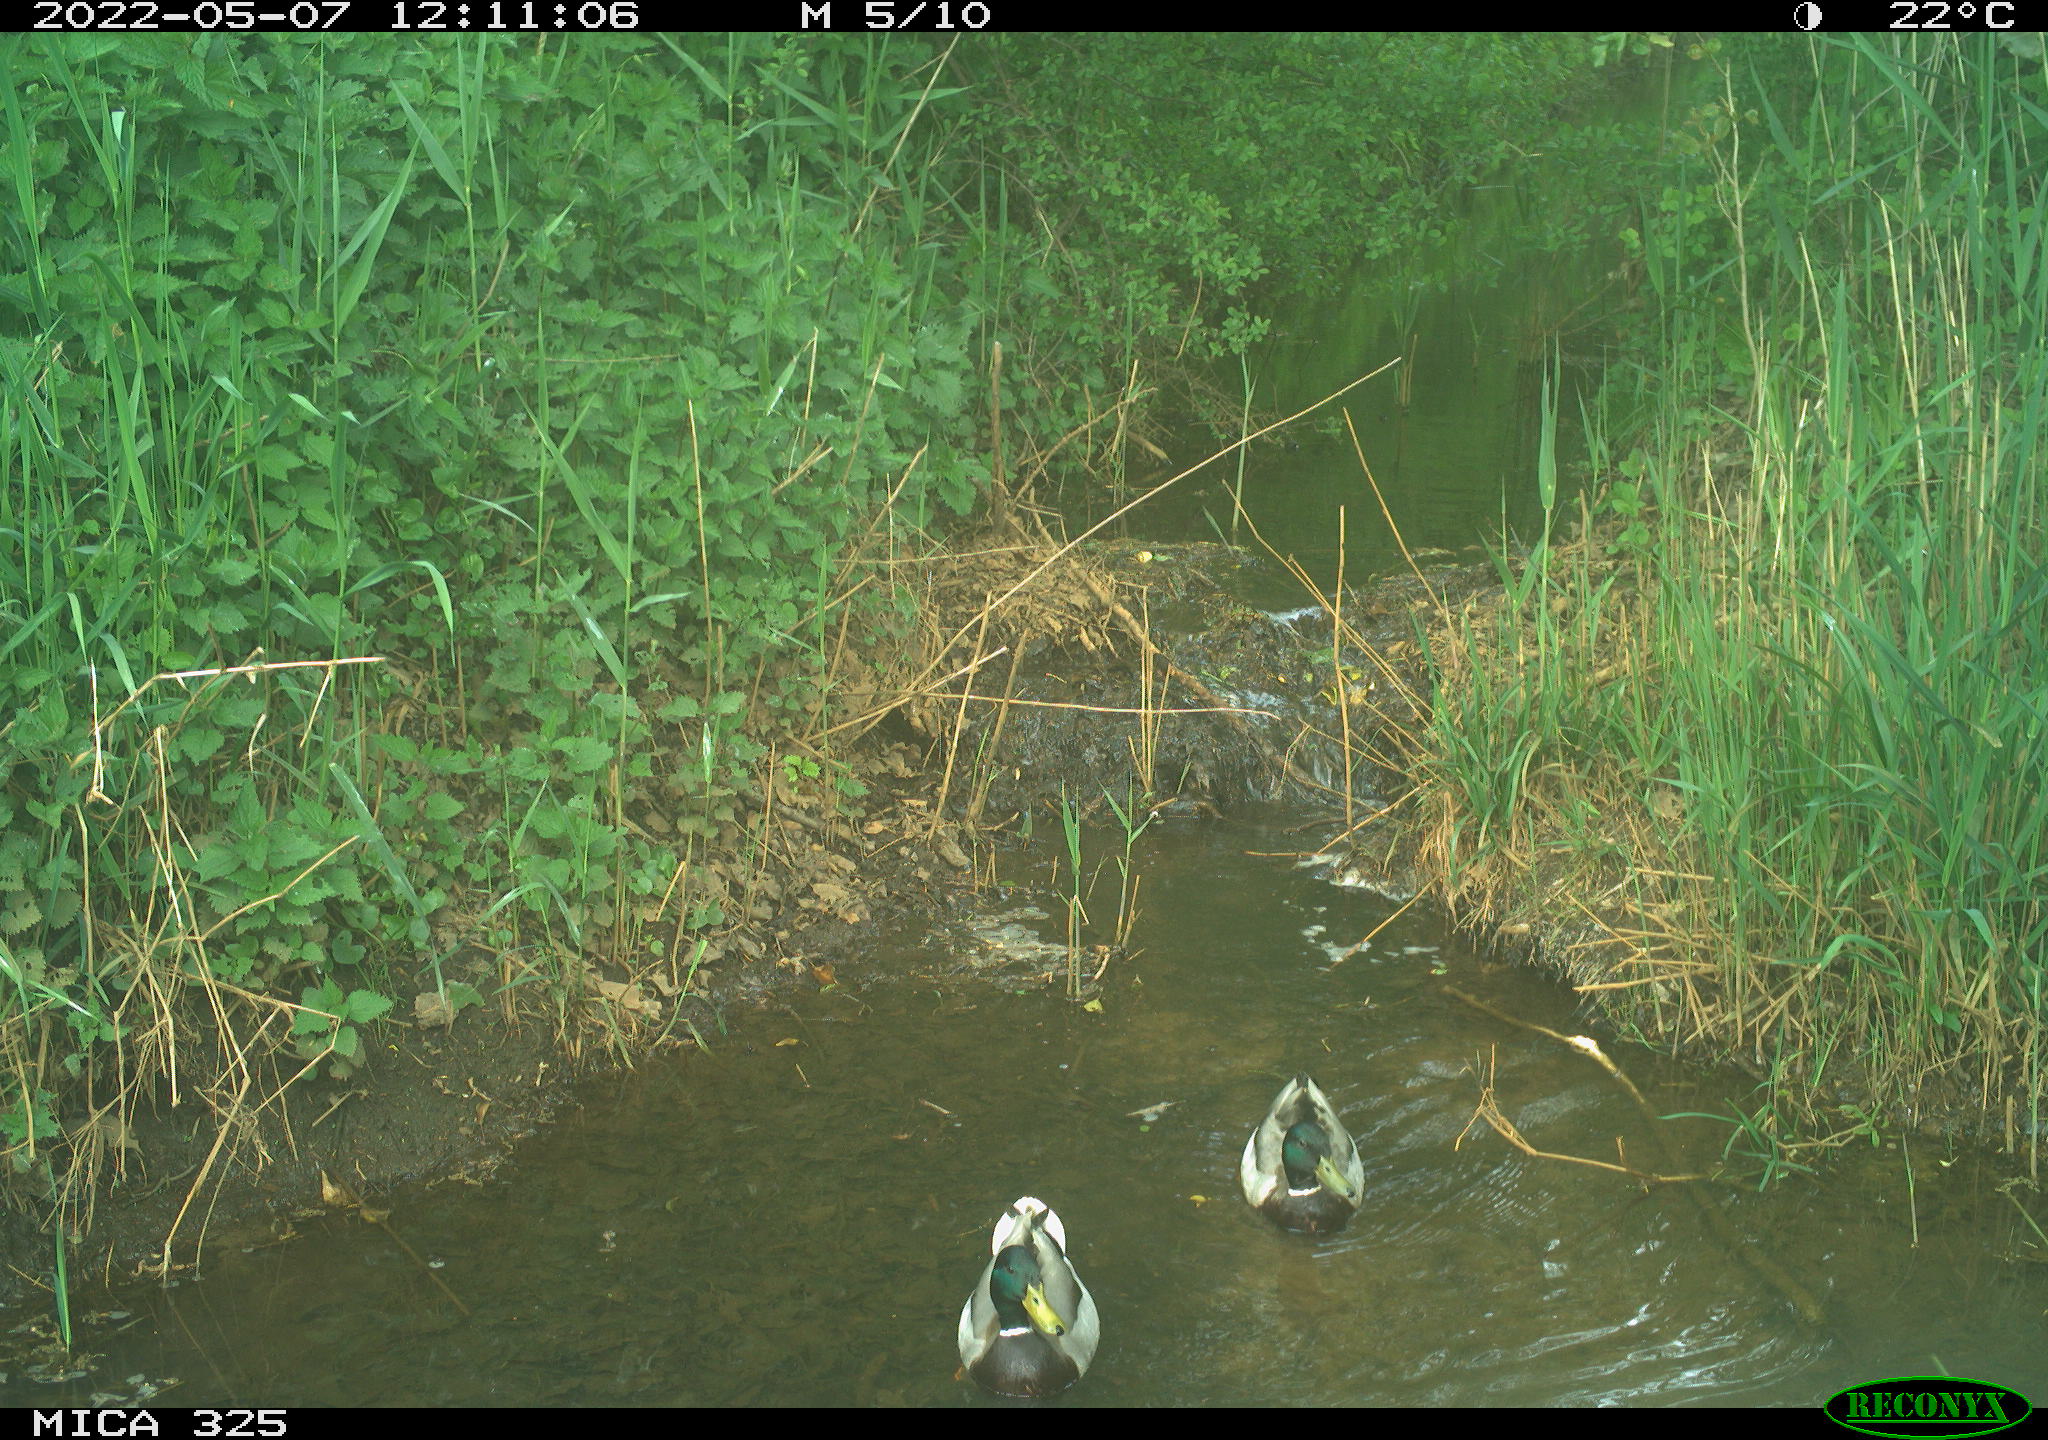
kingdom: Animalia
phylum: Chordata
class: Aves
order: Anseriformes
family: Anatidae
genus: Anas
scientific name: Anas platyrhynchos
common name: Mallard
